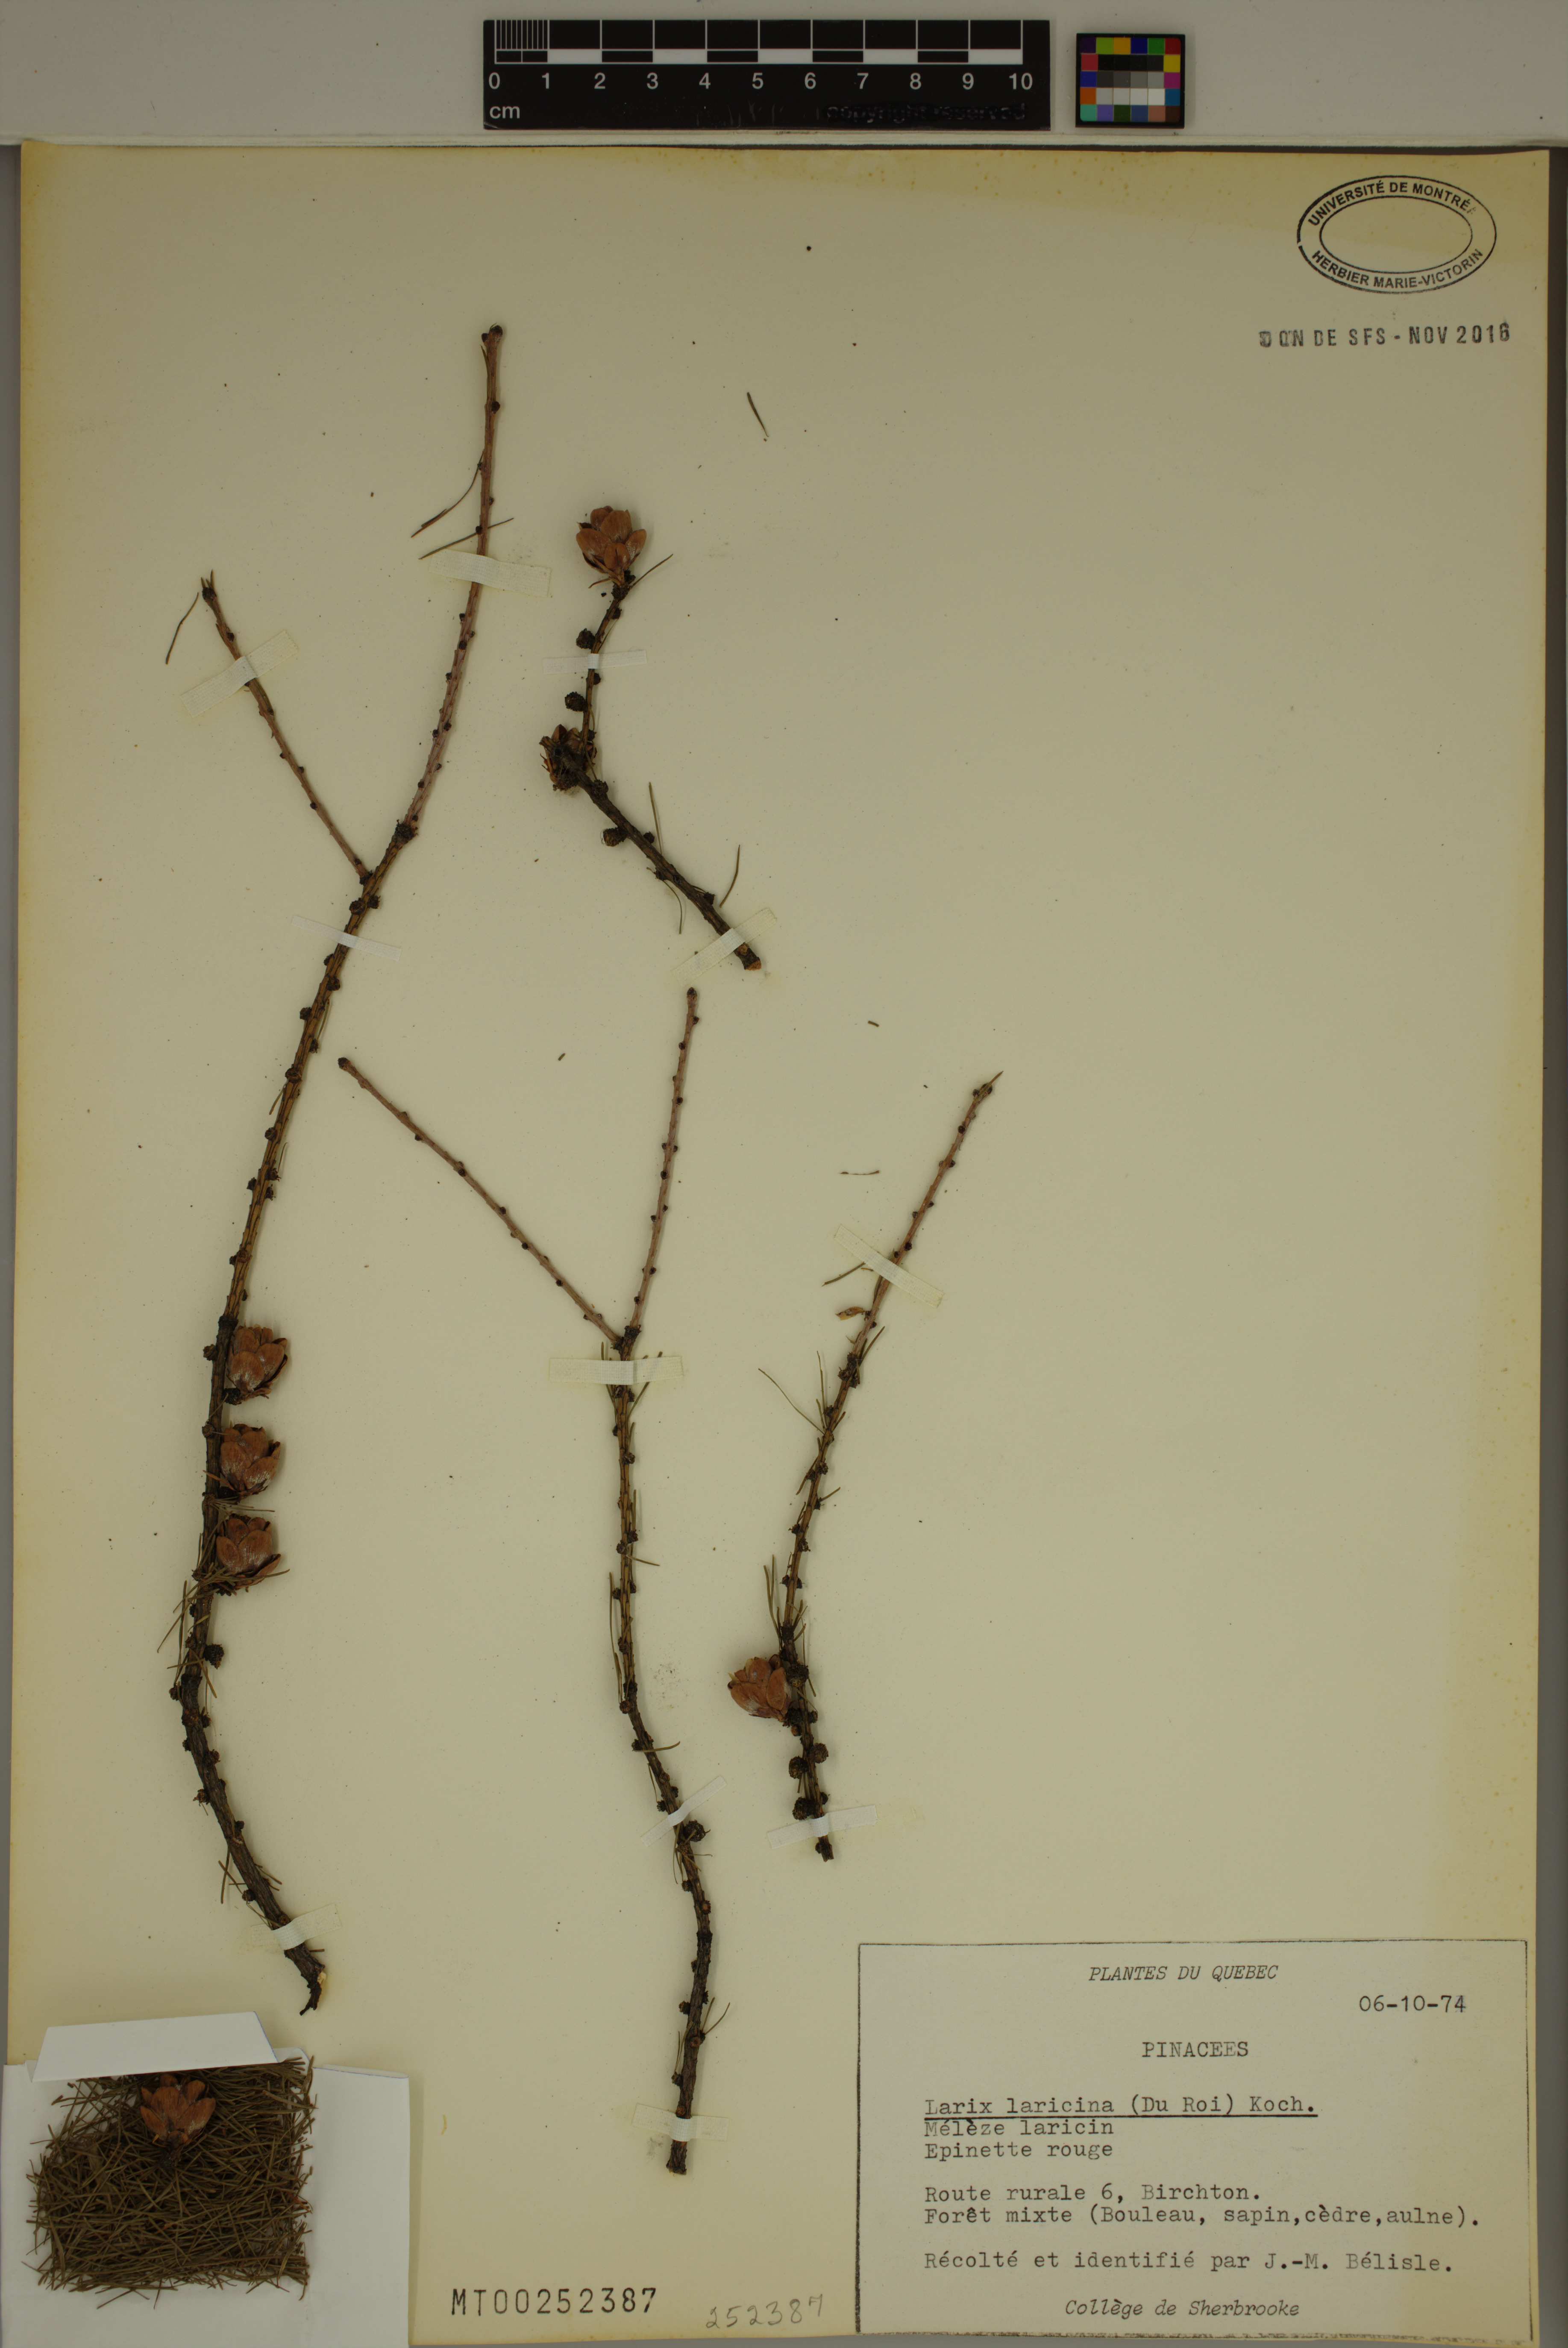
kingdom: Plantae
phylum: Tracheophyta
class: Pinopsida
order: Pinales
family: Pinaceae
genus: Larix
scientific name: Larix laricina
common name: American larch
